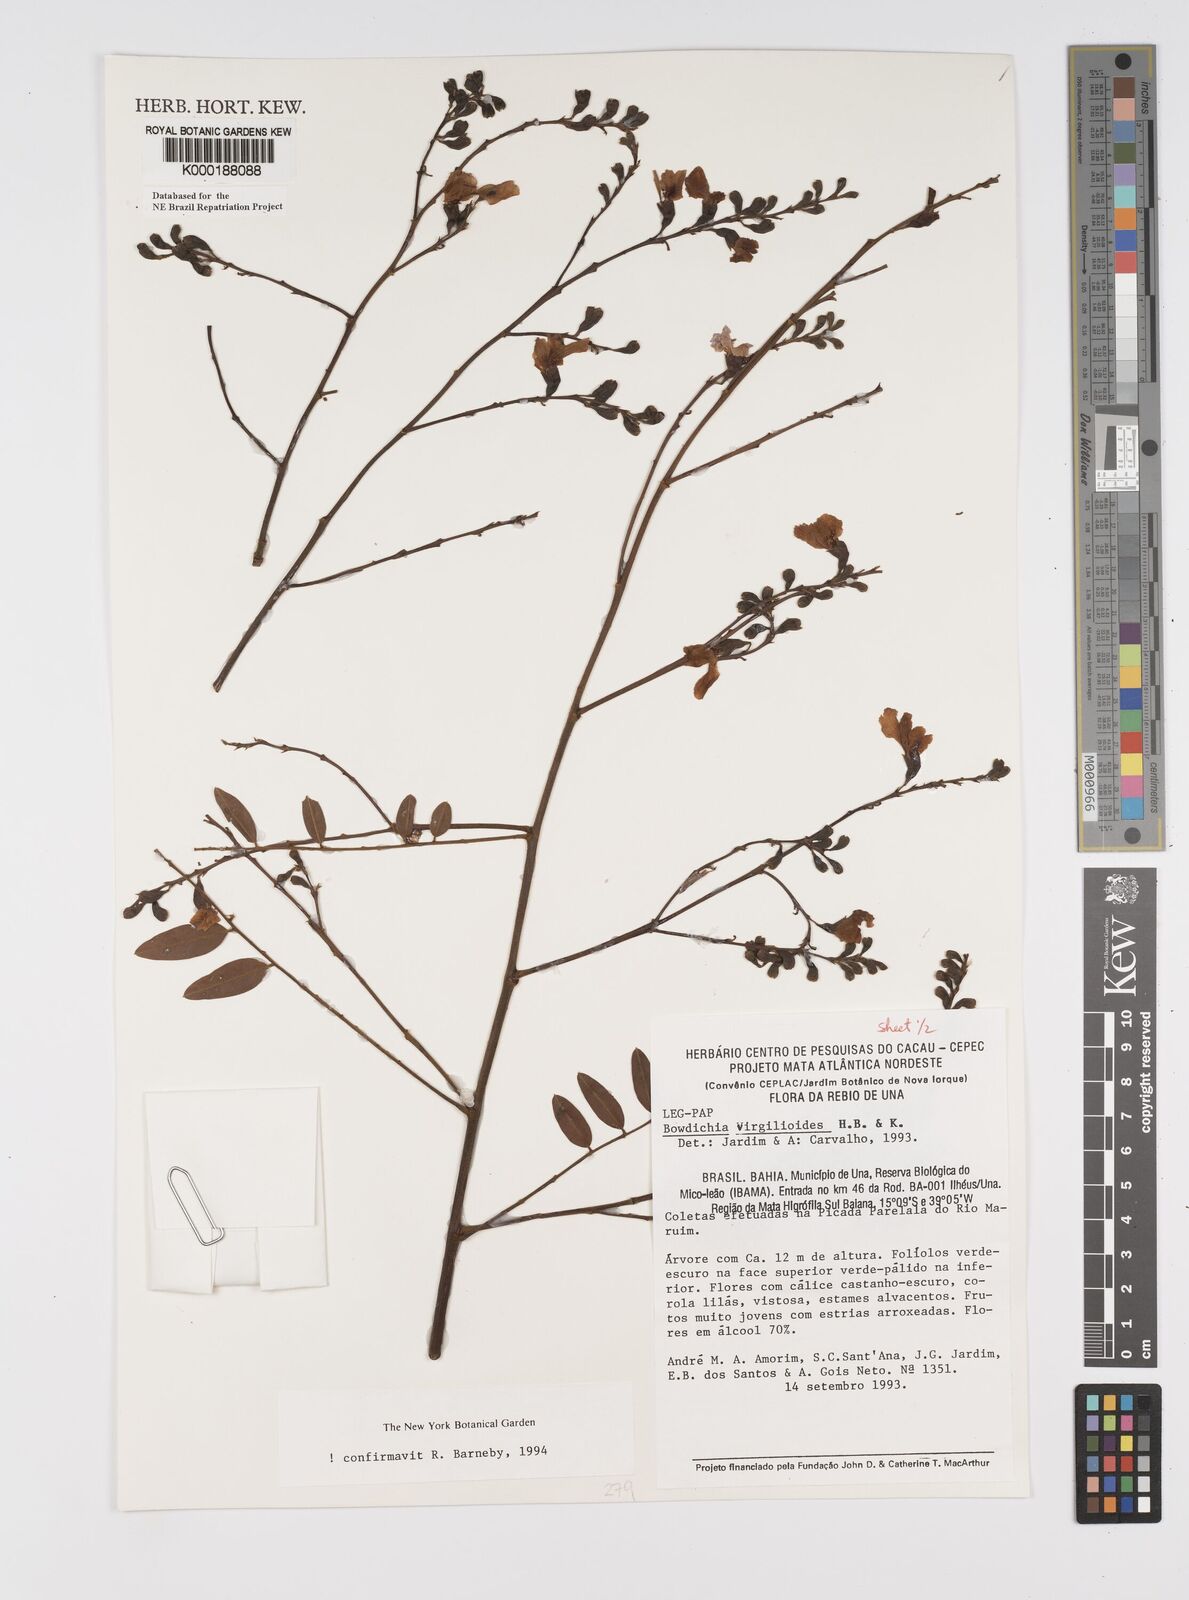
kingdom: Plantae
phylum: Tracheophyta
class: Magnoliopsida
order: Fabales
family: Fabaceae
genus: Bowdichia
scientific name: Bowdichia virgilioides
